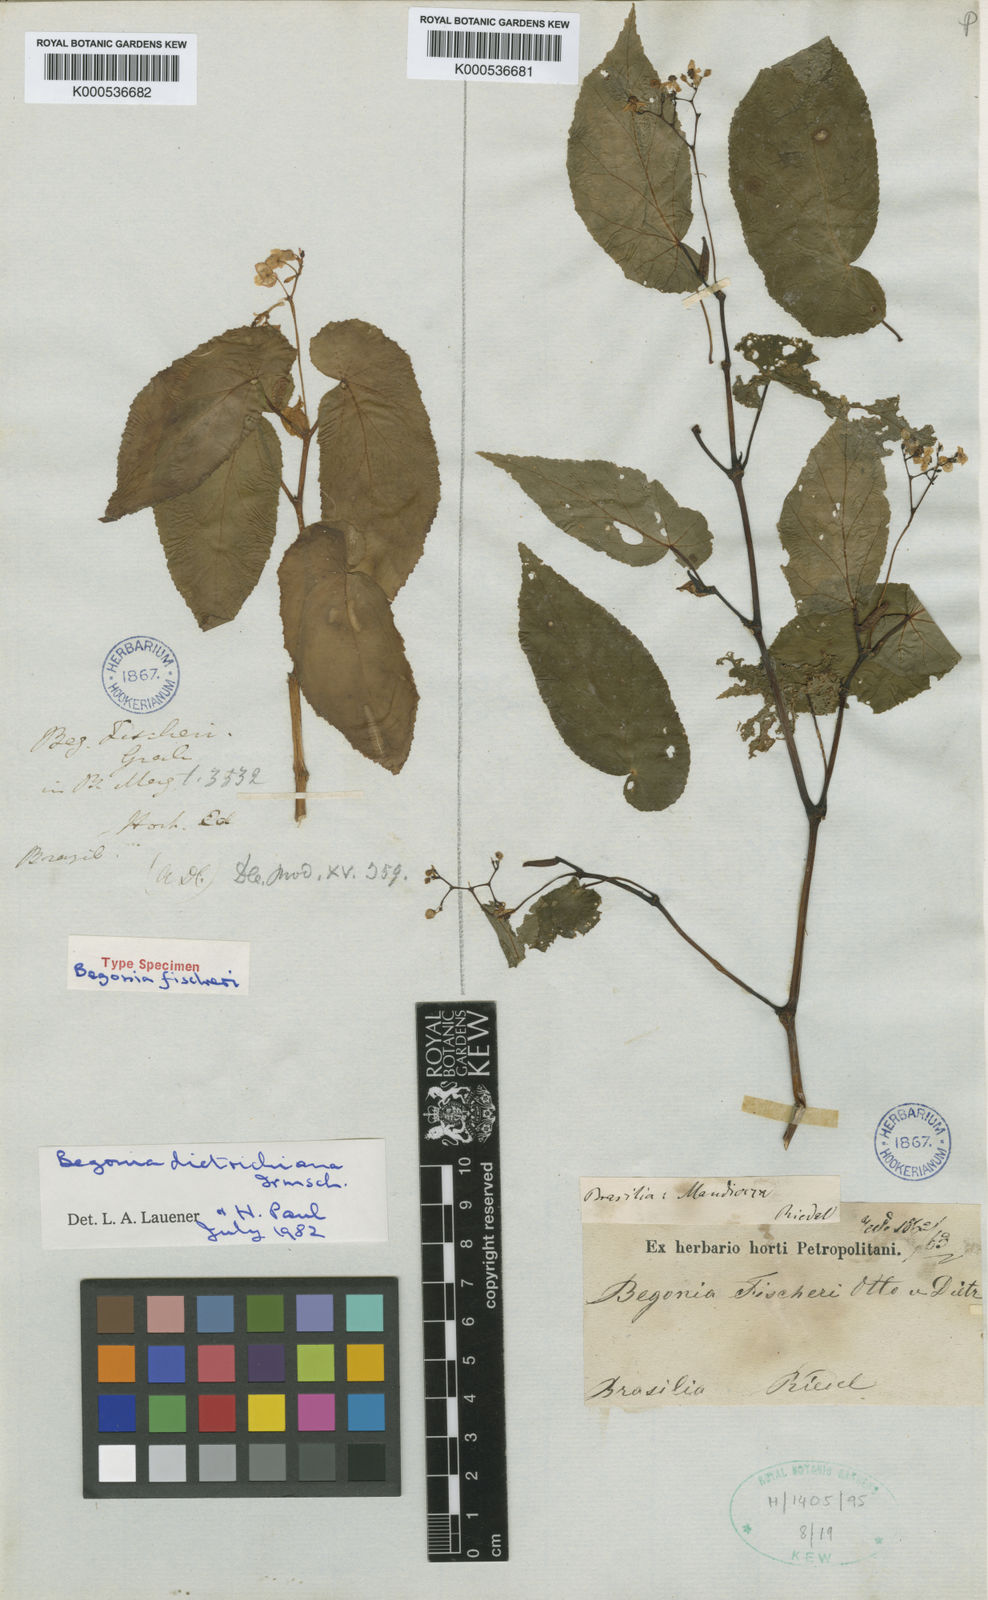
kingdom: Plantae
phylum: Tracheophyta
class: Magnoliopsida
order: Cucurbitales
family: Begoniaceae
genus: Begonia
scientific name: Begonia dietrichiana
